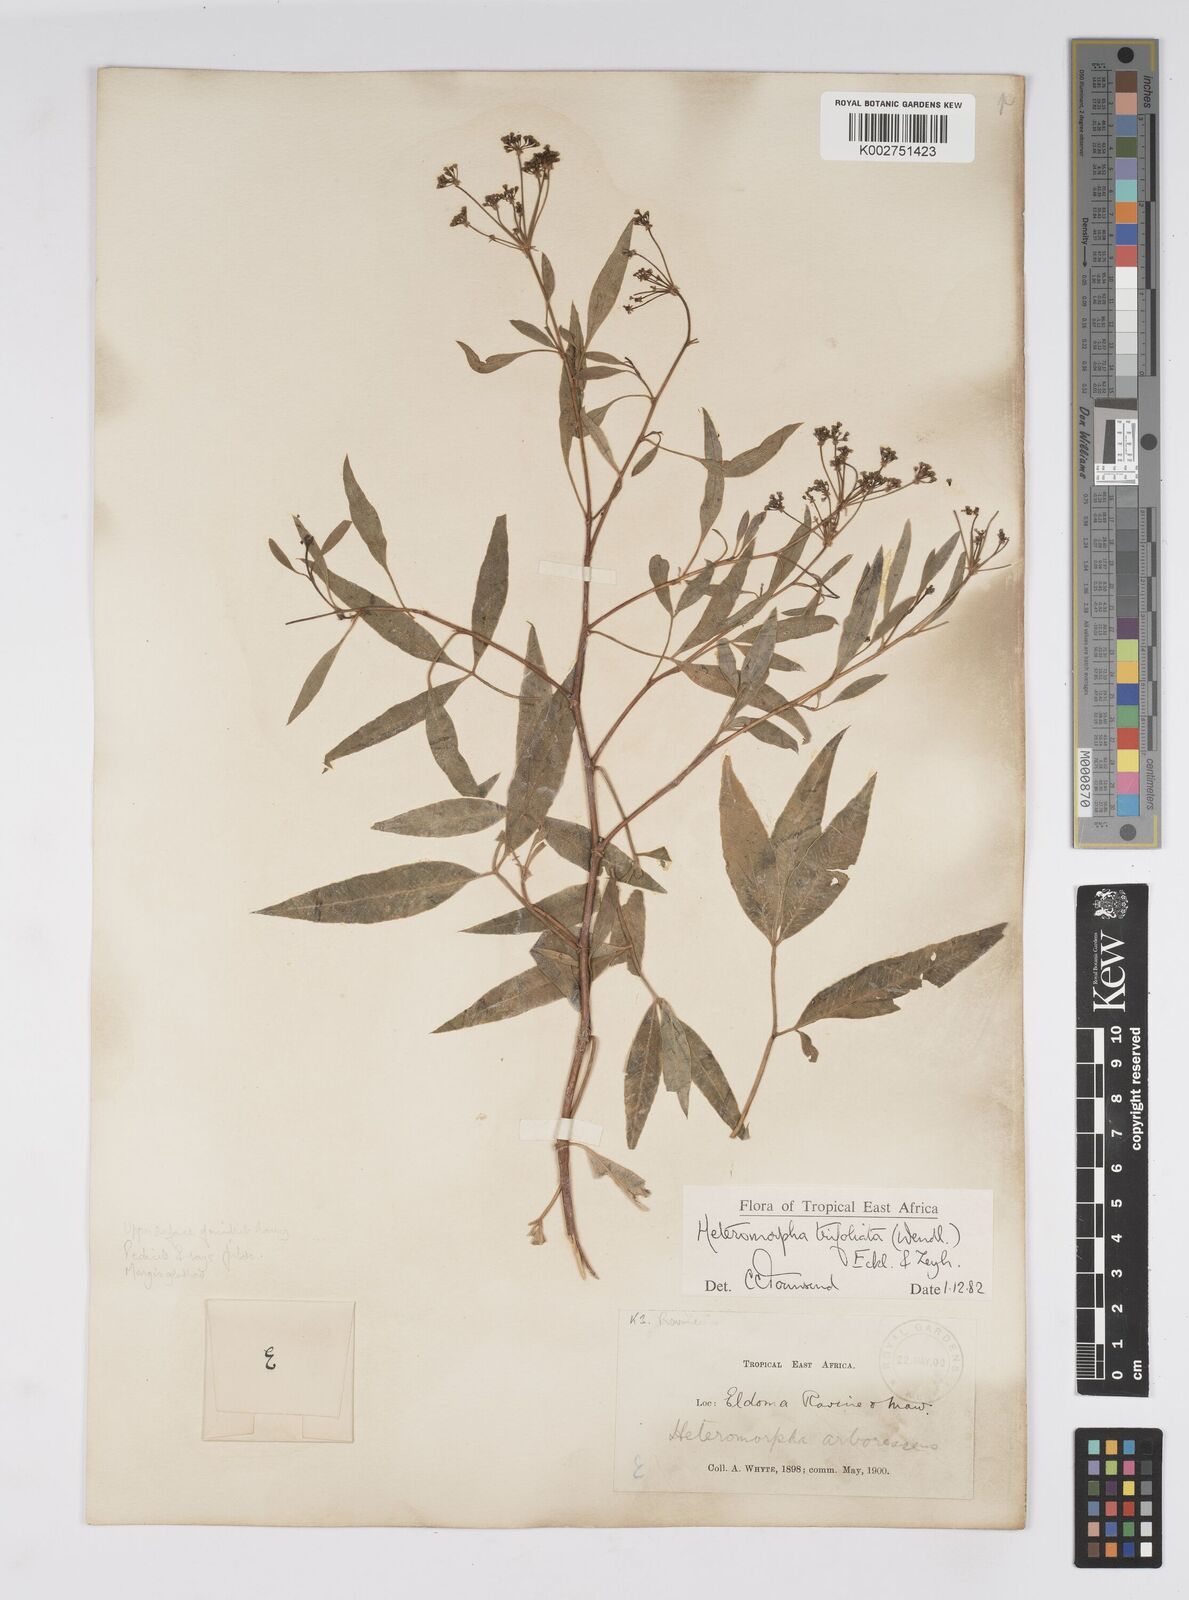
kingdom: Plantae
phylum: Tracheophyta
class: Magnoliopsida
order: Apiales
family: Apiaceae
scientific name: Apiaceae
